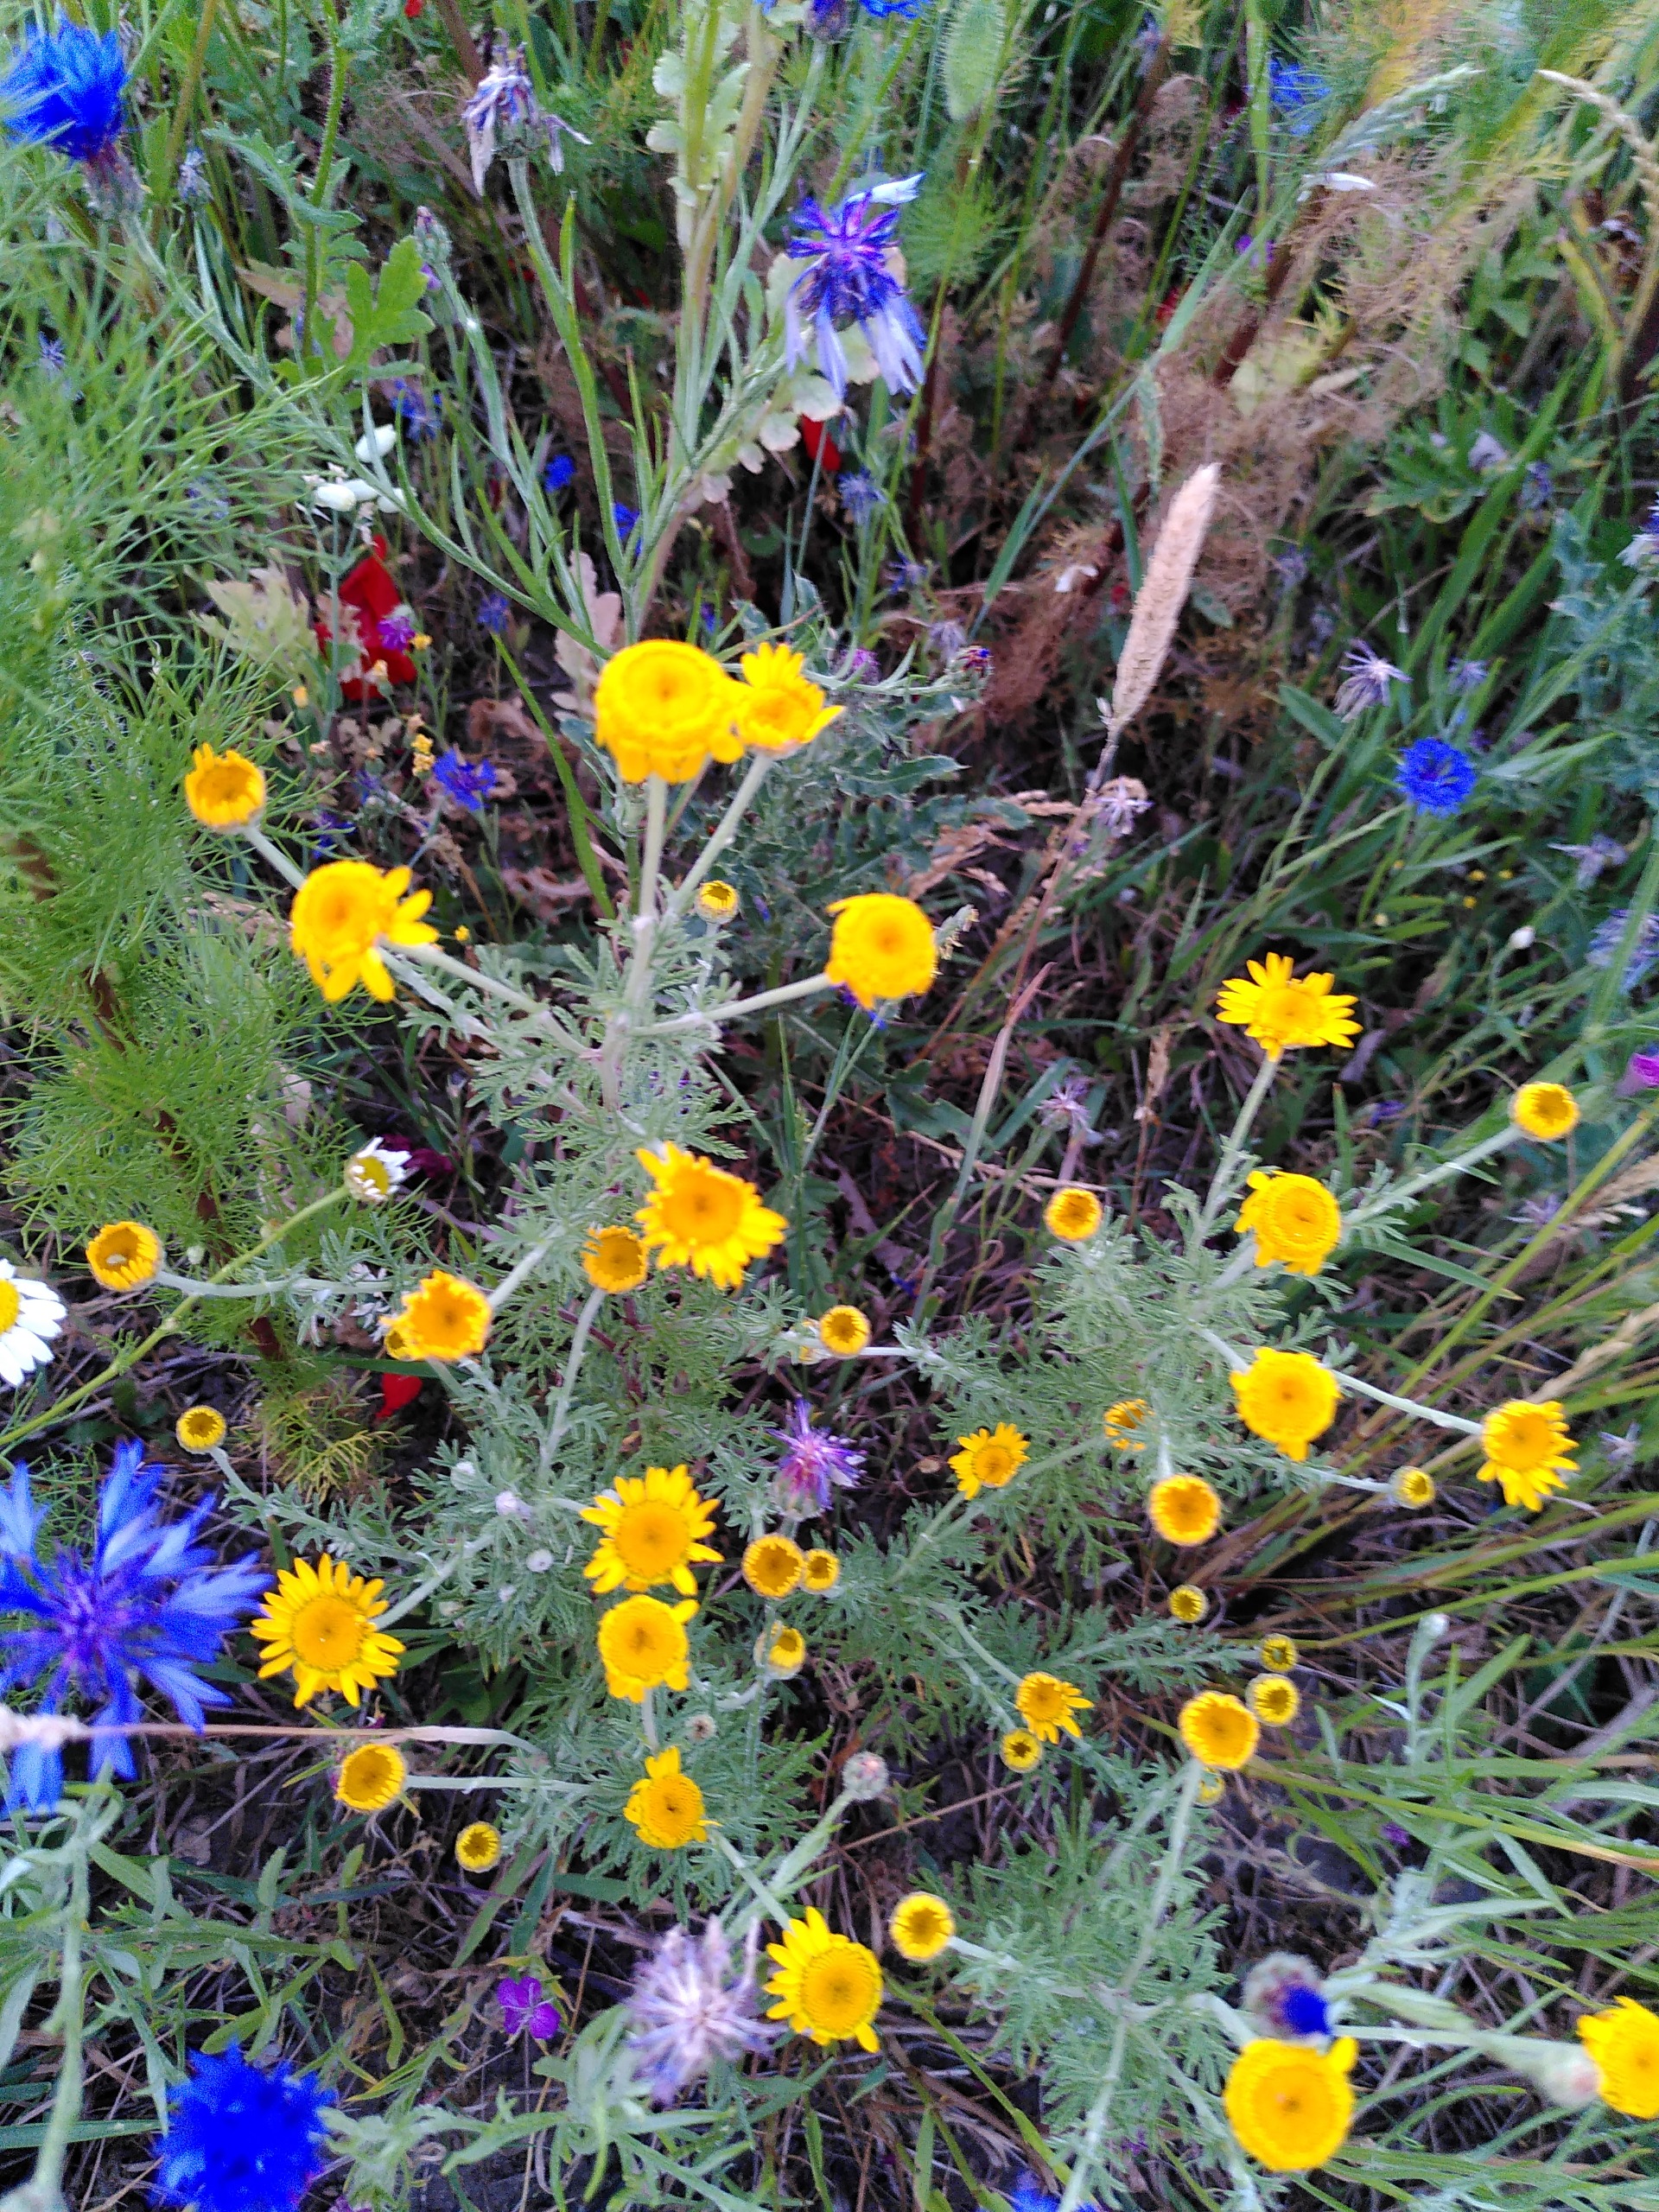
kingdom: Plantae
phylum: Tracheophyta
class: Magnoliopsida
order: Asterales
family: Asteraceae
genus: Cota
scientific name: Cota tinctoria
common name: Farve-gåseurt
